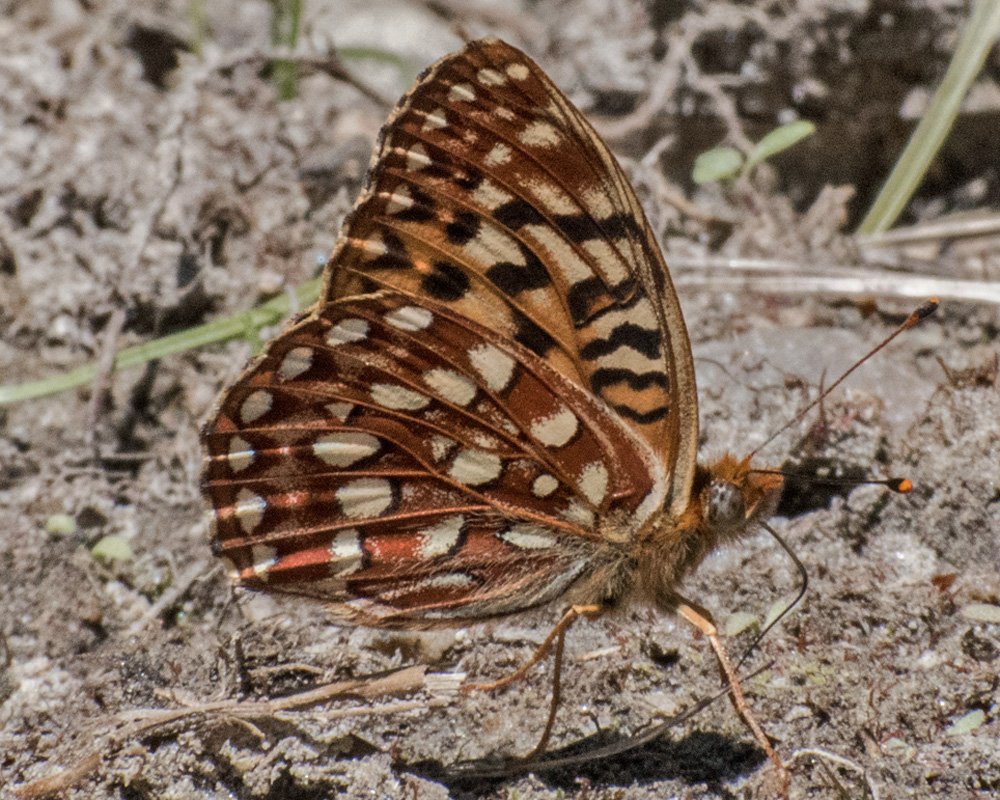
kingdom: Animalia
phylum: Arthropoda
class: Insecta
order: Lepidoptera
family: Nymphalidae
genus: Speyeria
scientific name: Speyeria hydaspe
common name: Hydaspe Fritillary
